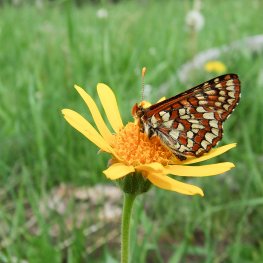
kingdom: Animalia
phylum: Arthropoda
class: Insecta
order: Lepidoptera
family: Nymphalidae
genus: Occidryas
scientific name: Occidryas anicia
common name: Anicia Checkerspot
